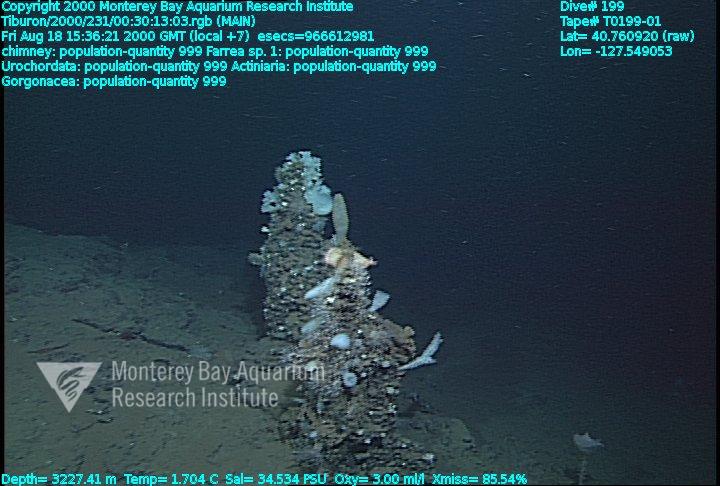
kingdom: Animalia
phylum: Porifera
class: Hexactinellida
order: Sceptrulophora
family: Farreidae
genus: Farrea
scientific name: Farrea truncata
